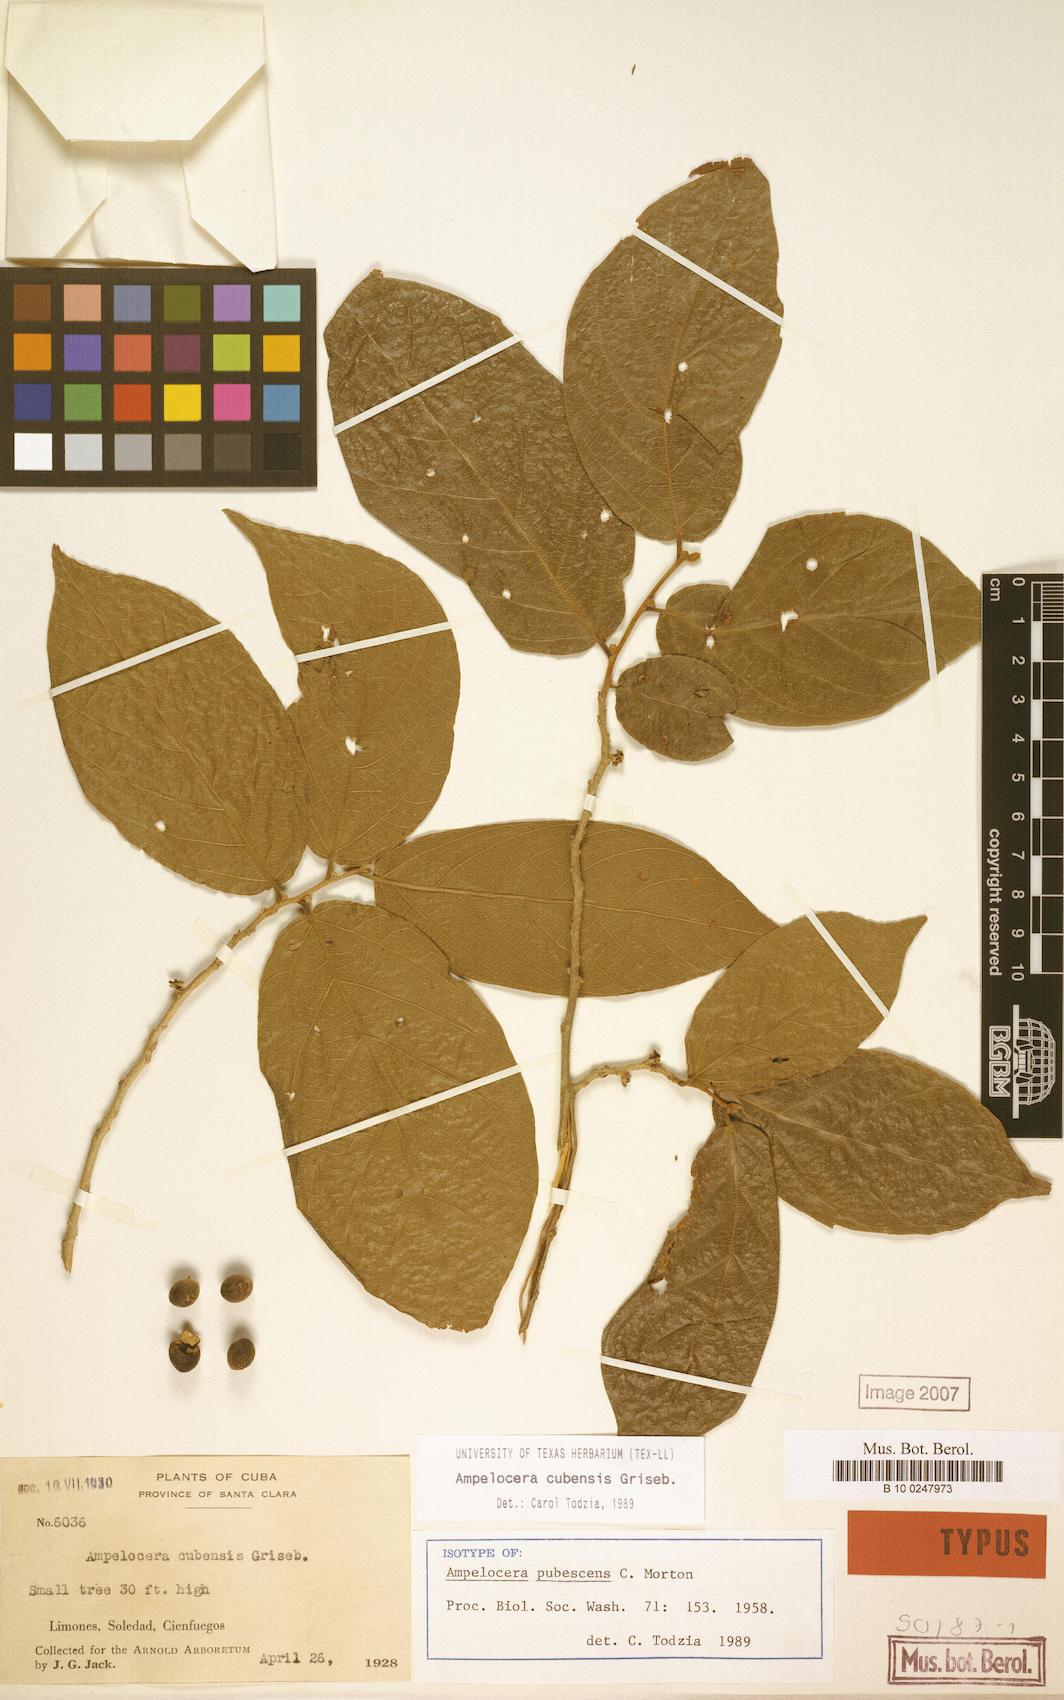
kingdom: Plantae
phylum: Tracheophyta
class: Magnoliopsida
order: Rosales
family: Cannabaceae
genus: Ampelocera
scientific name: Ampelocera cubensis
